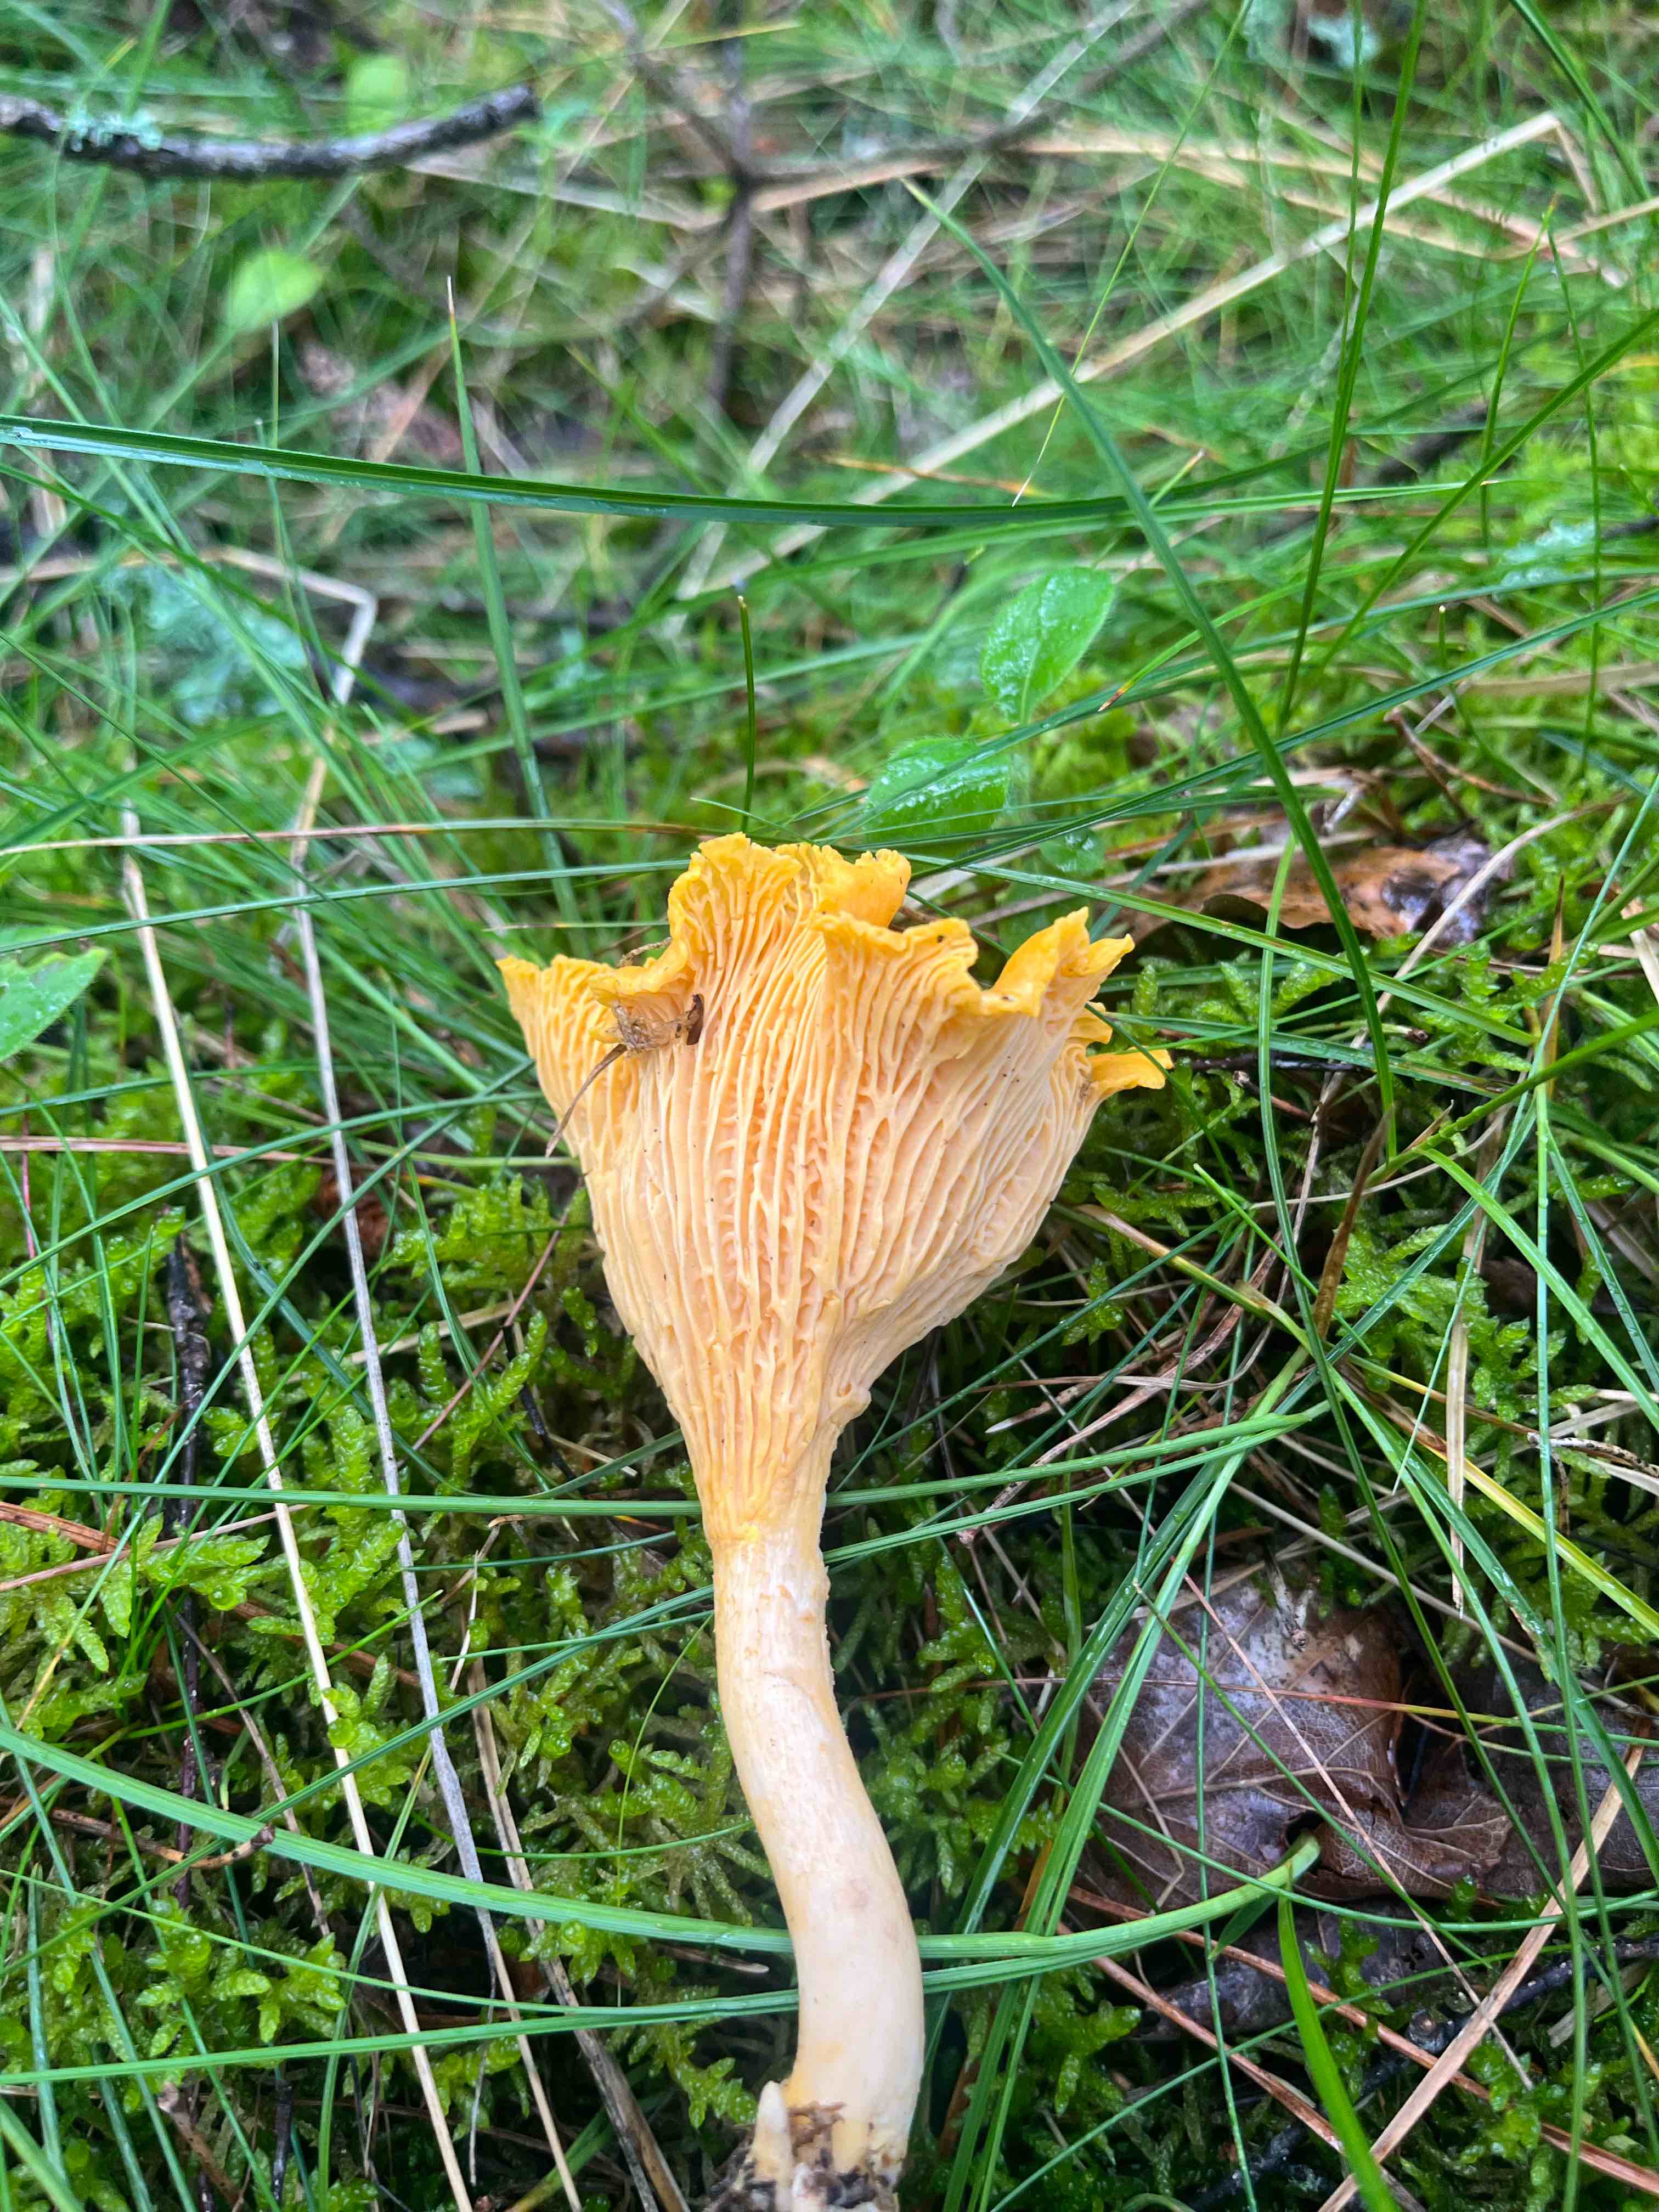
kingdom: Fungi
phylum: Basidiomycota
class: Agaricomycetes
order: Cantharellales
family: Hydnaceae
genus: Cantharellus
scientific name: Cantharellus cibarius
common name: almindelig kantarel
